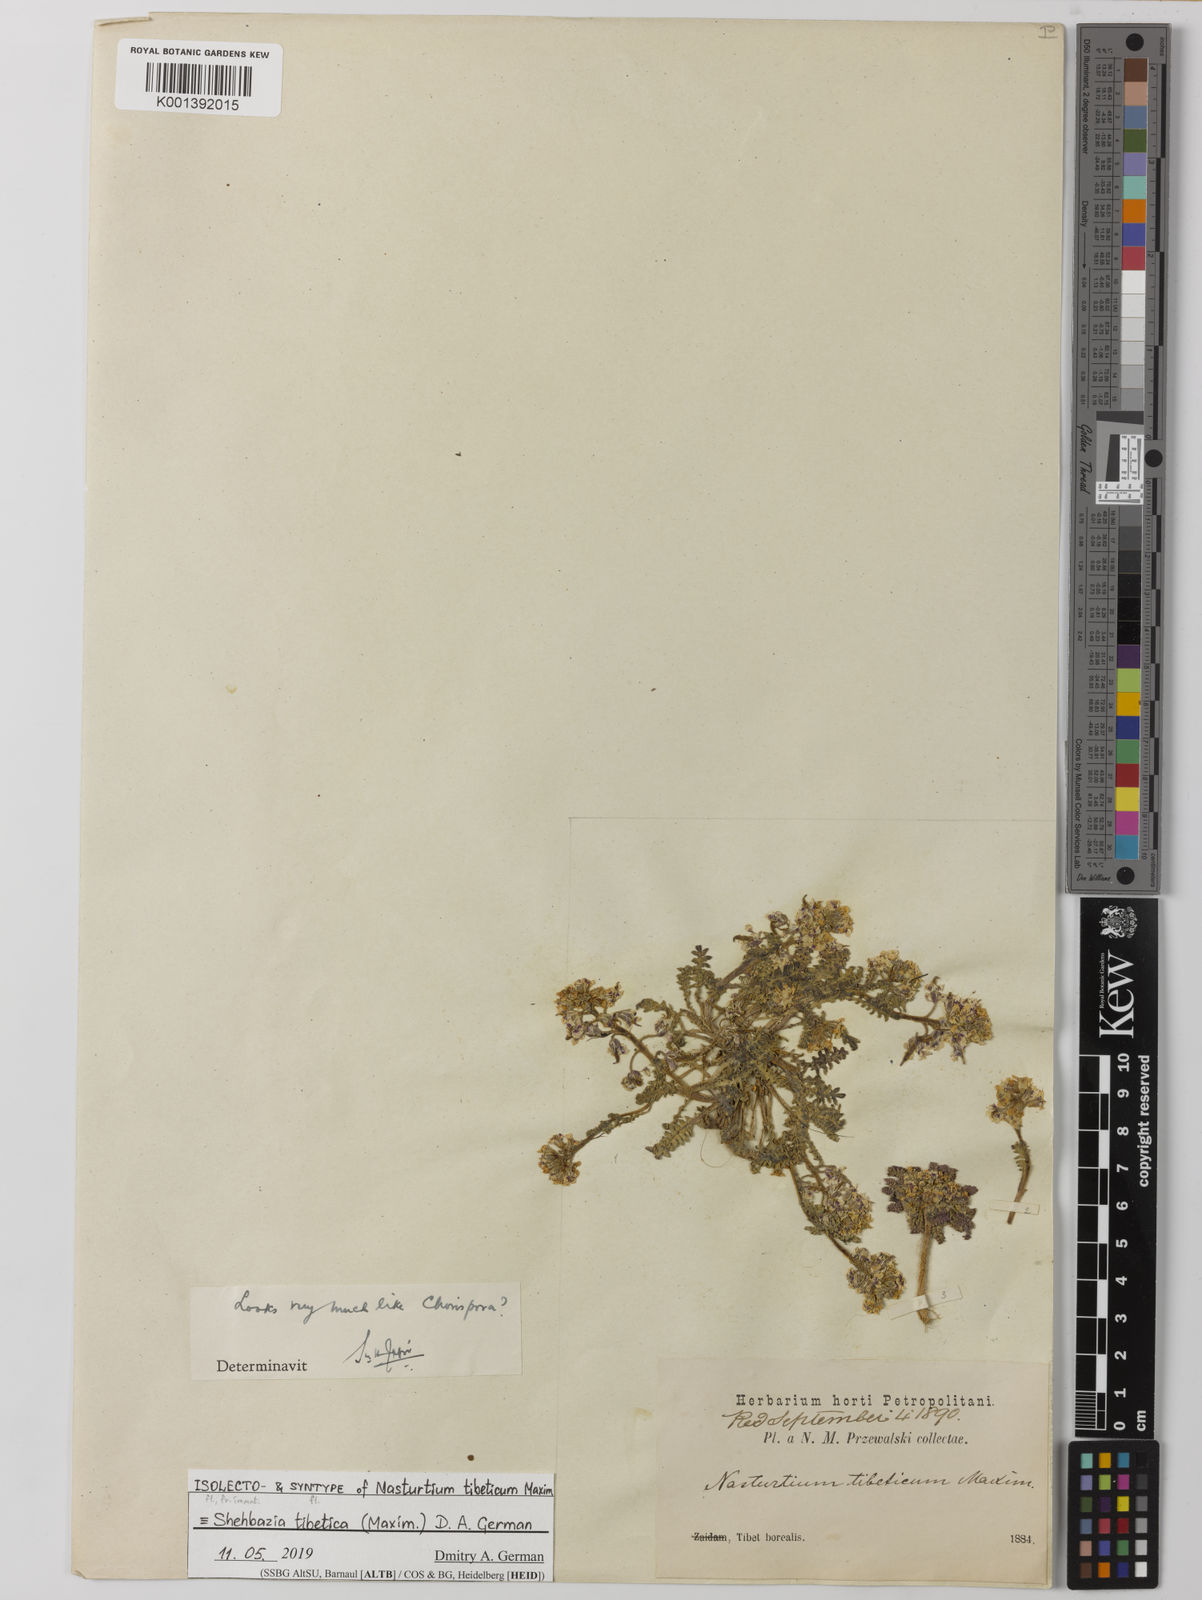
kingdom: Plantae
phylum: Tracheophyta
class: Magnoliopsida
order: Brassicales
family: Brassicaceae
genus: Shehbazia
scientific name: Shehbazia tibetica
